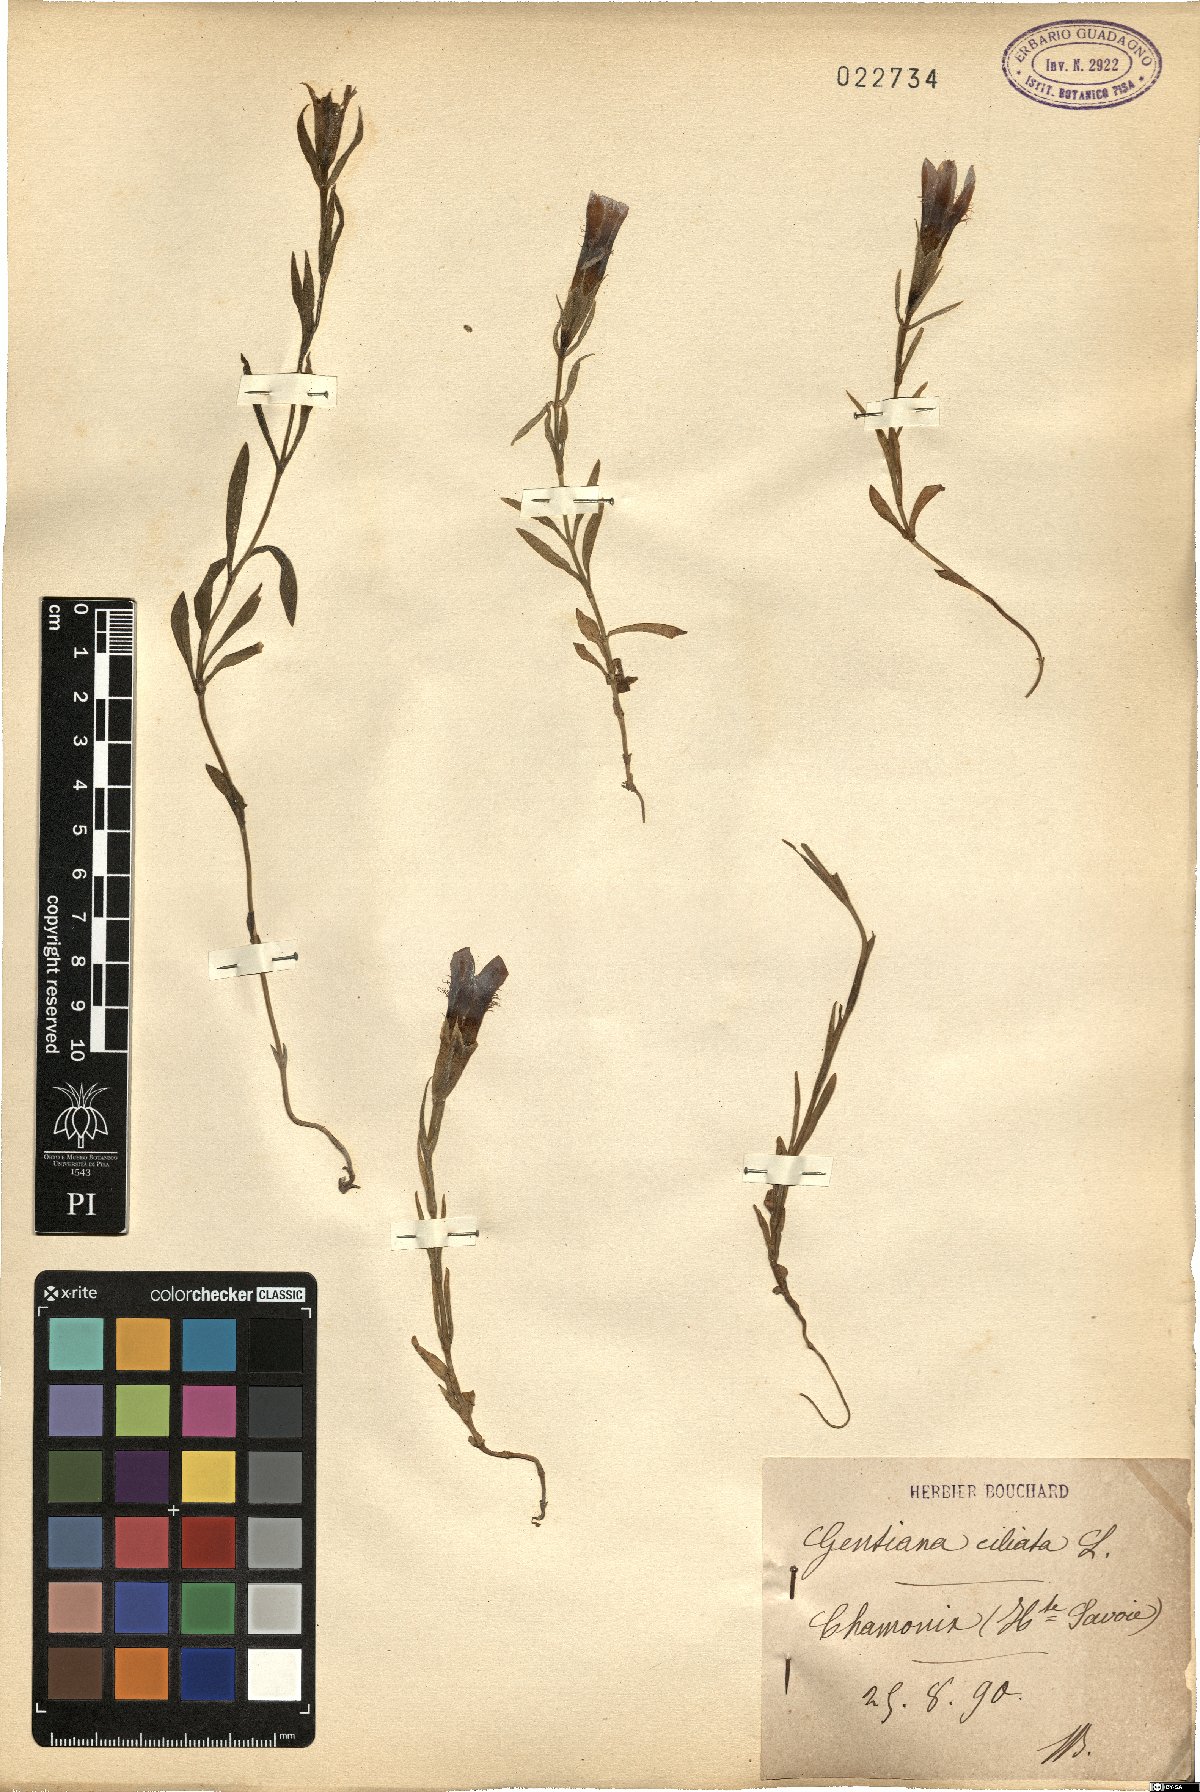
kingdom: Plantae
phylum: Tracheophyta
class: Magnoliopsida
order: Gentianales
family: Gentianaceae
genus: Gentianopsis
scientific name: Gentianopsis ciliata
